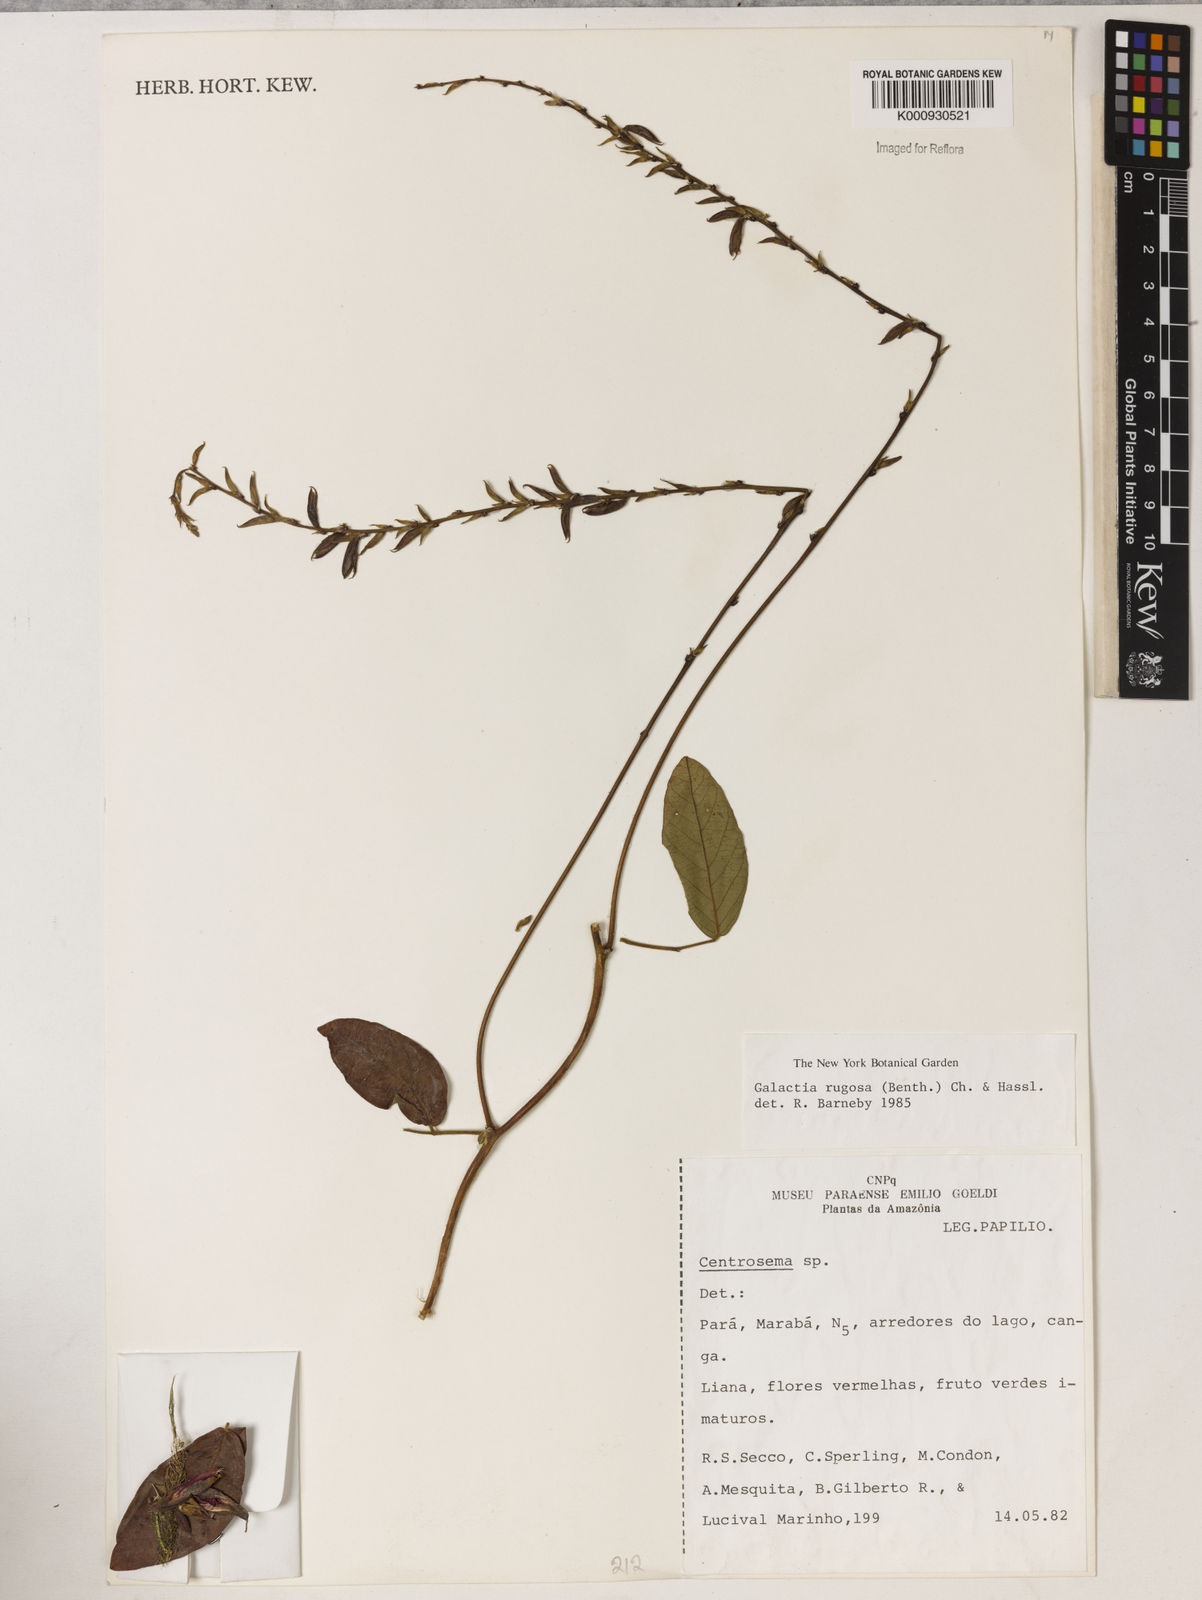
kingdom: Plantae
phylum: Tracheophyta
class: Magnoliopsida
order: Fabales
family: Fabaceae
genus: Galactia
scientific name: Galactia
